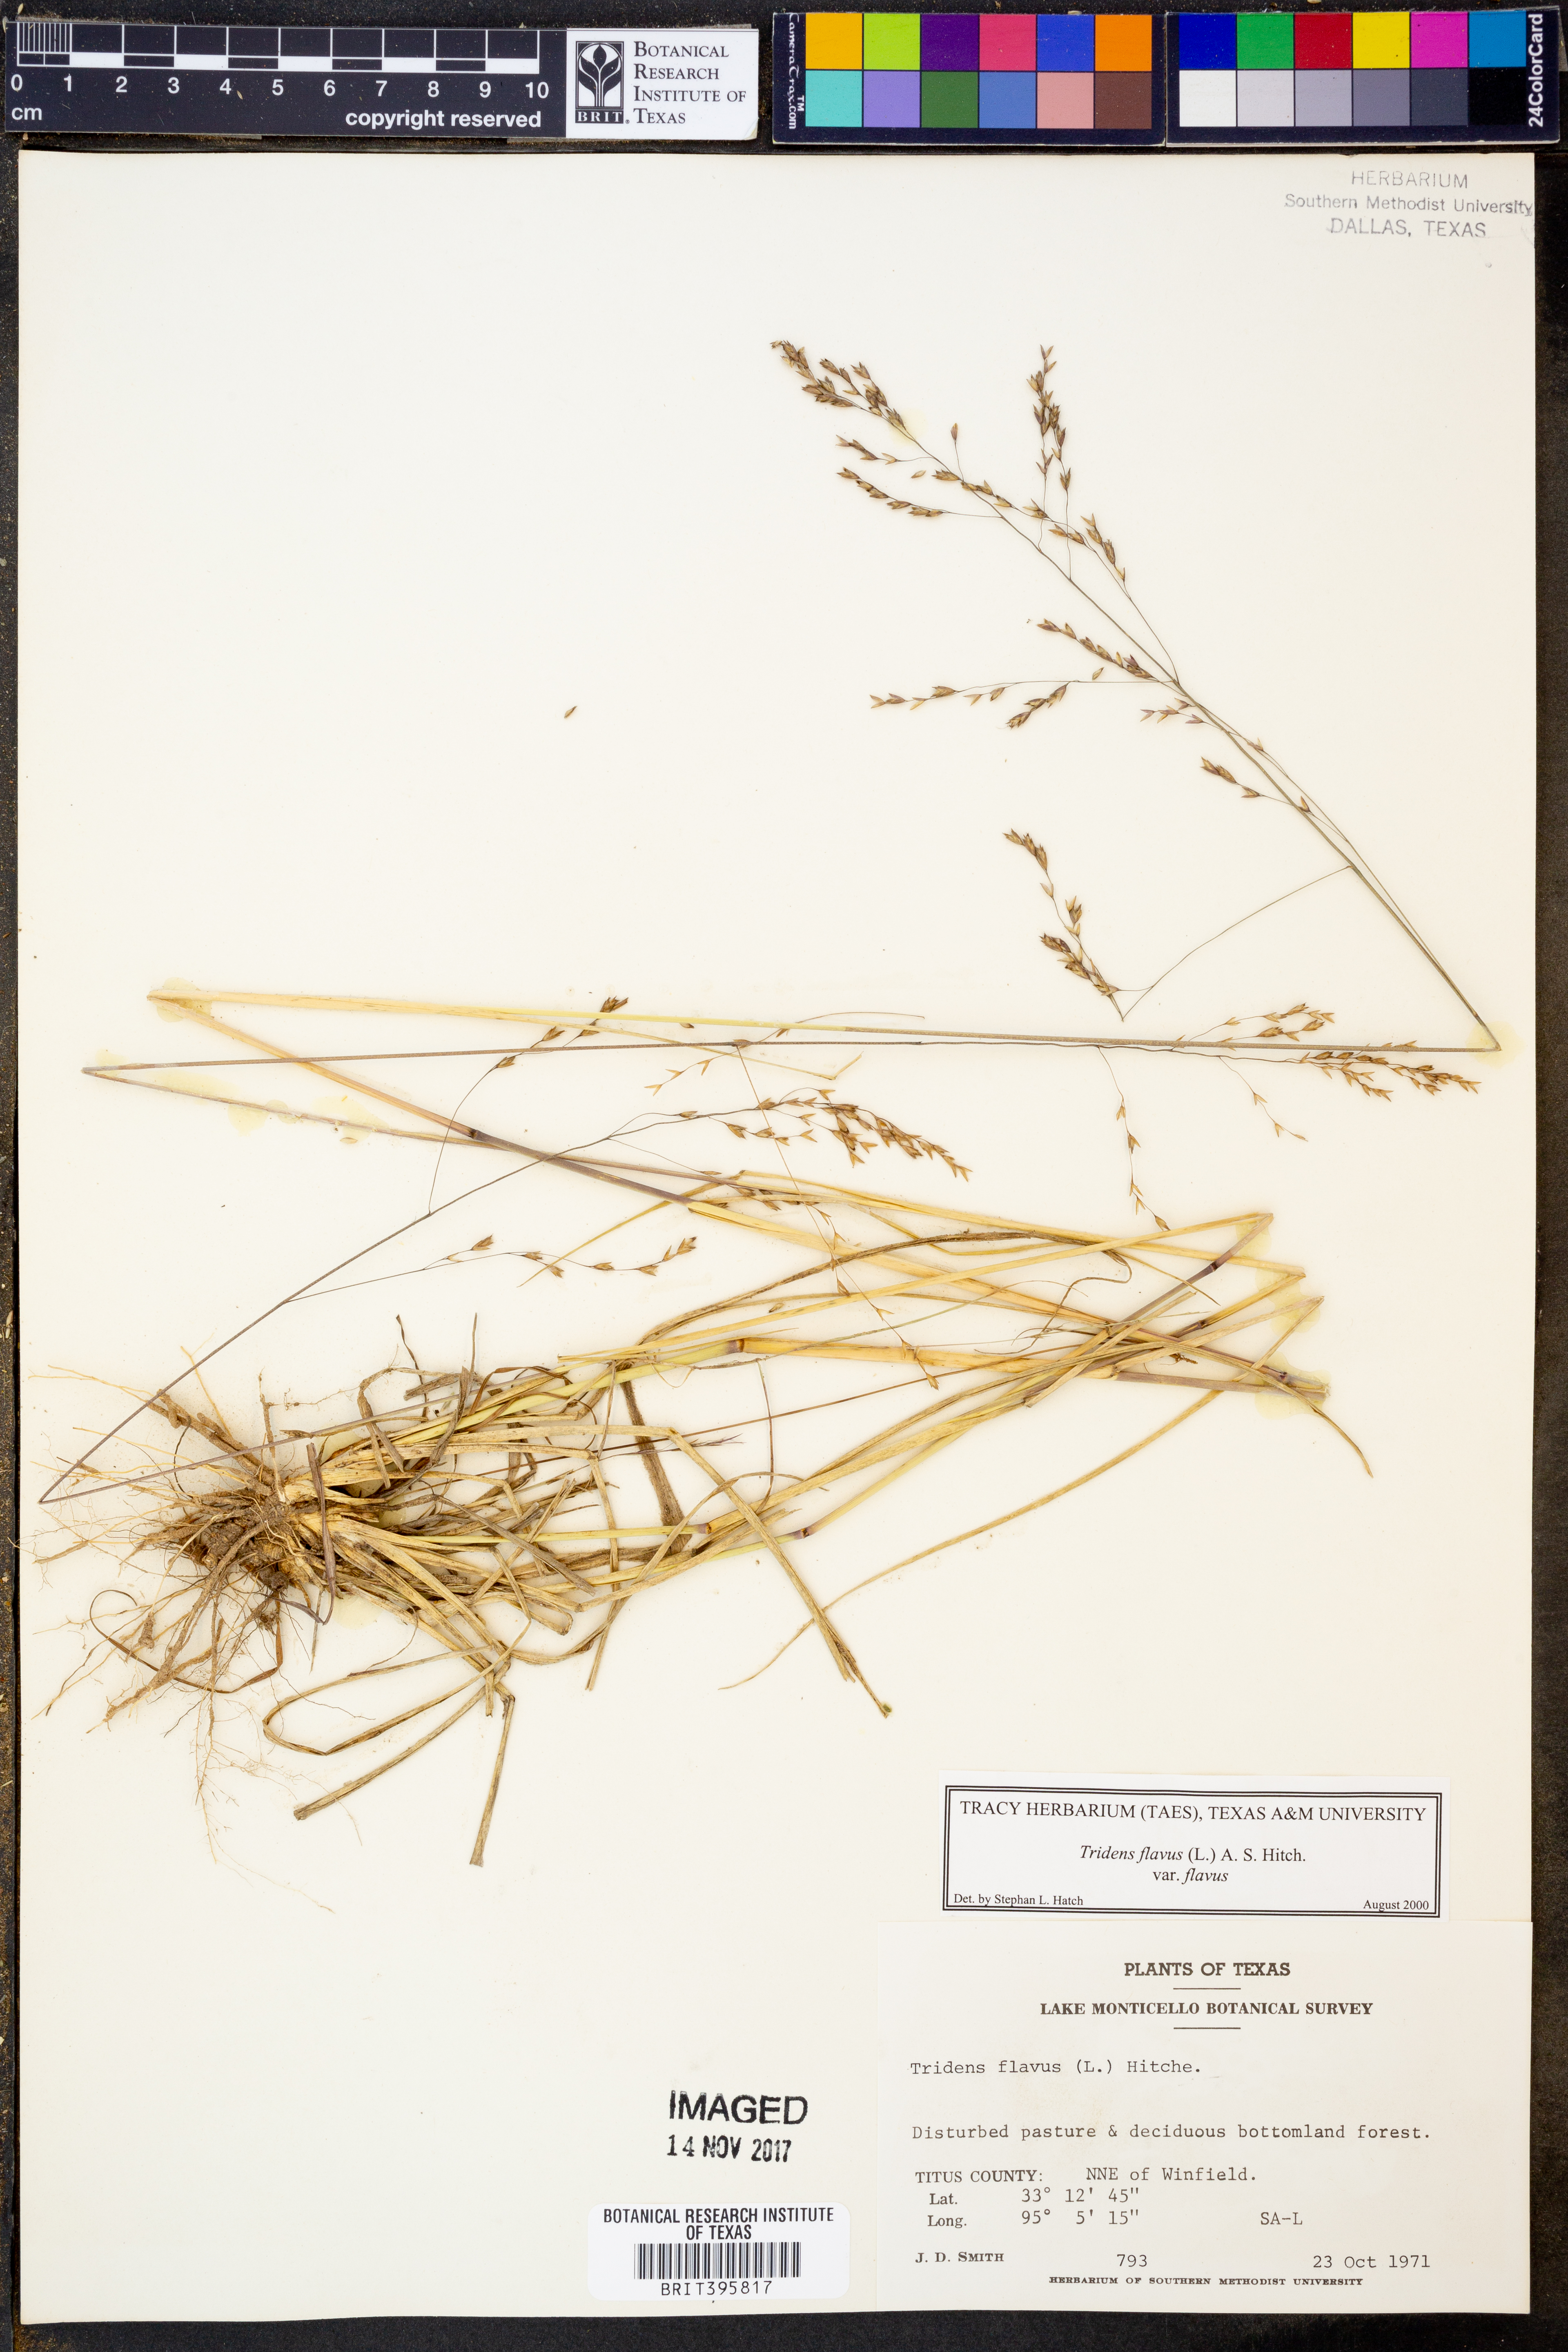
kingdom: Plantae
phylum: Tracheophyta
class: Liliopsida
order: Poales
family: Poaceae
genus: Tridens
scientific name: Tridens flavus
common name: Purpletop
